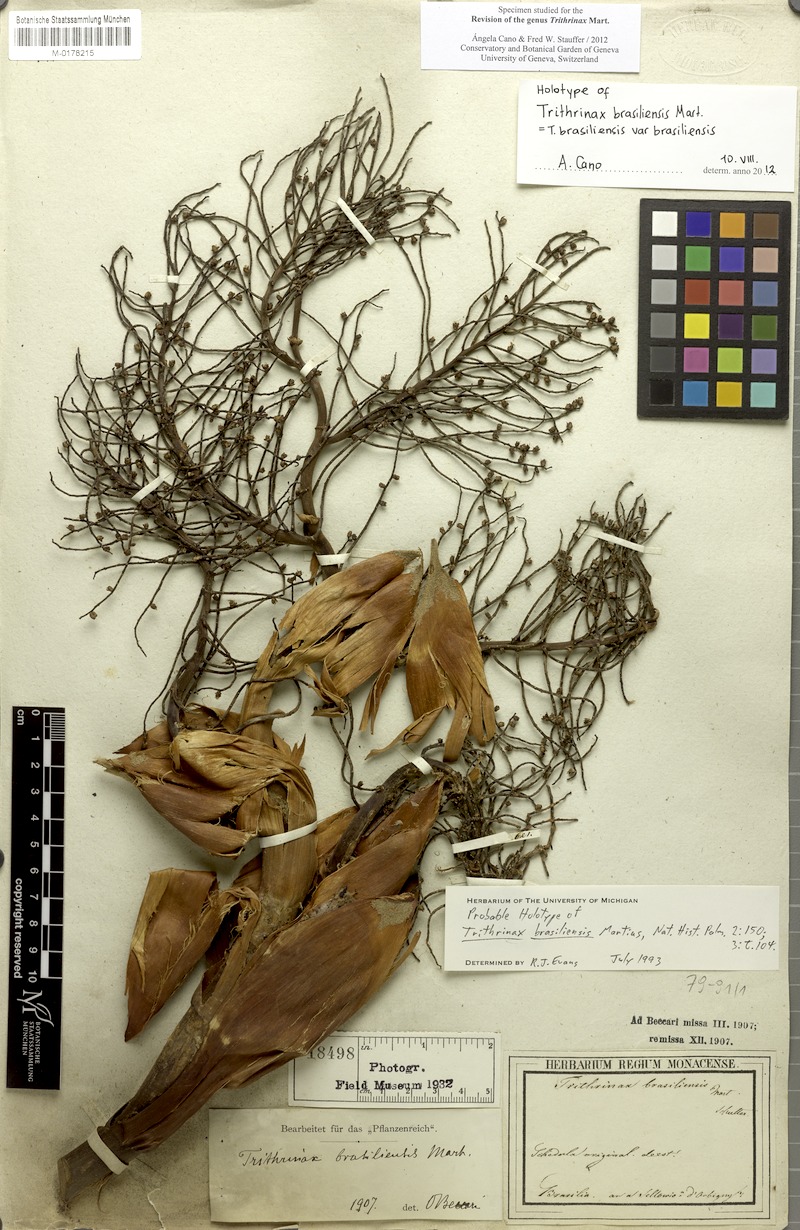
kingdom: Plantae
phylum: Tracheophyta
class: Liliopsida
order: Arecales
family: Arecaceae
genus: Trithrinax
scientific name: Trithrinax brasiliensis
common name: Carana palm
